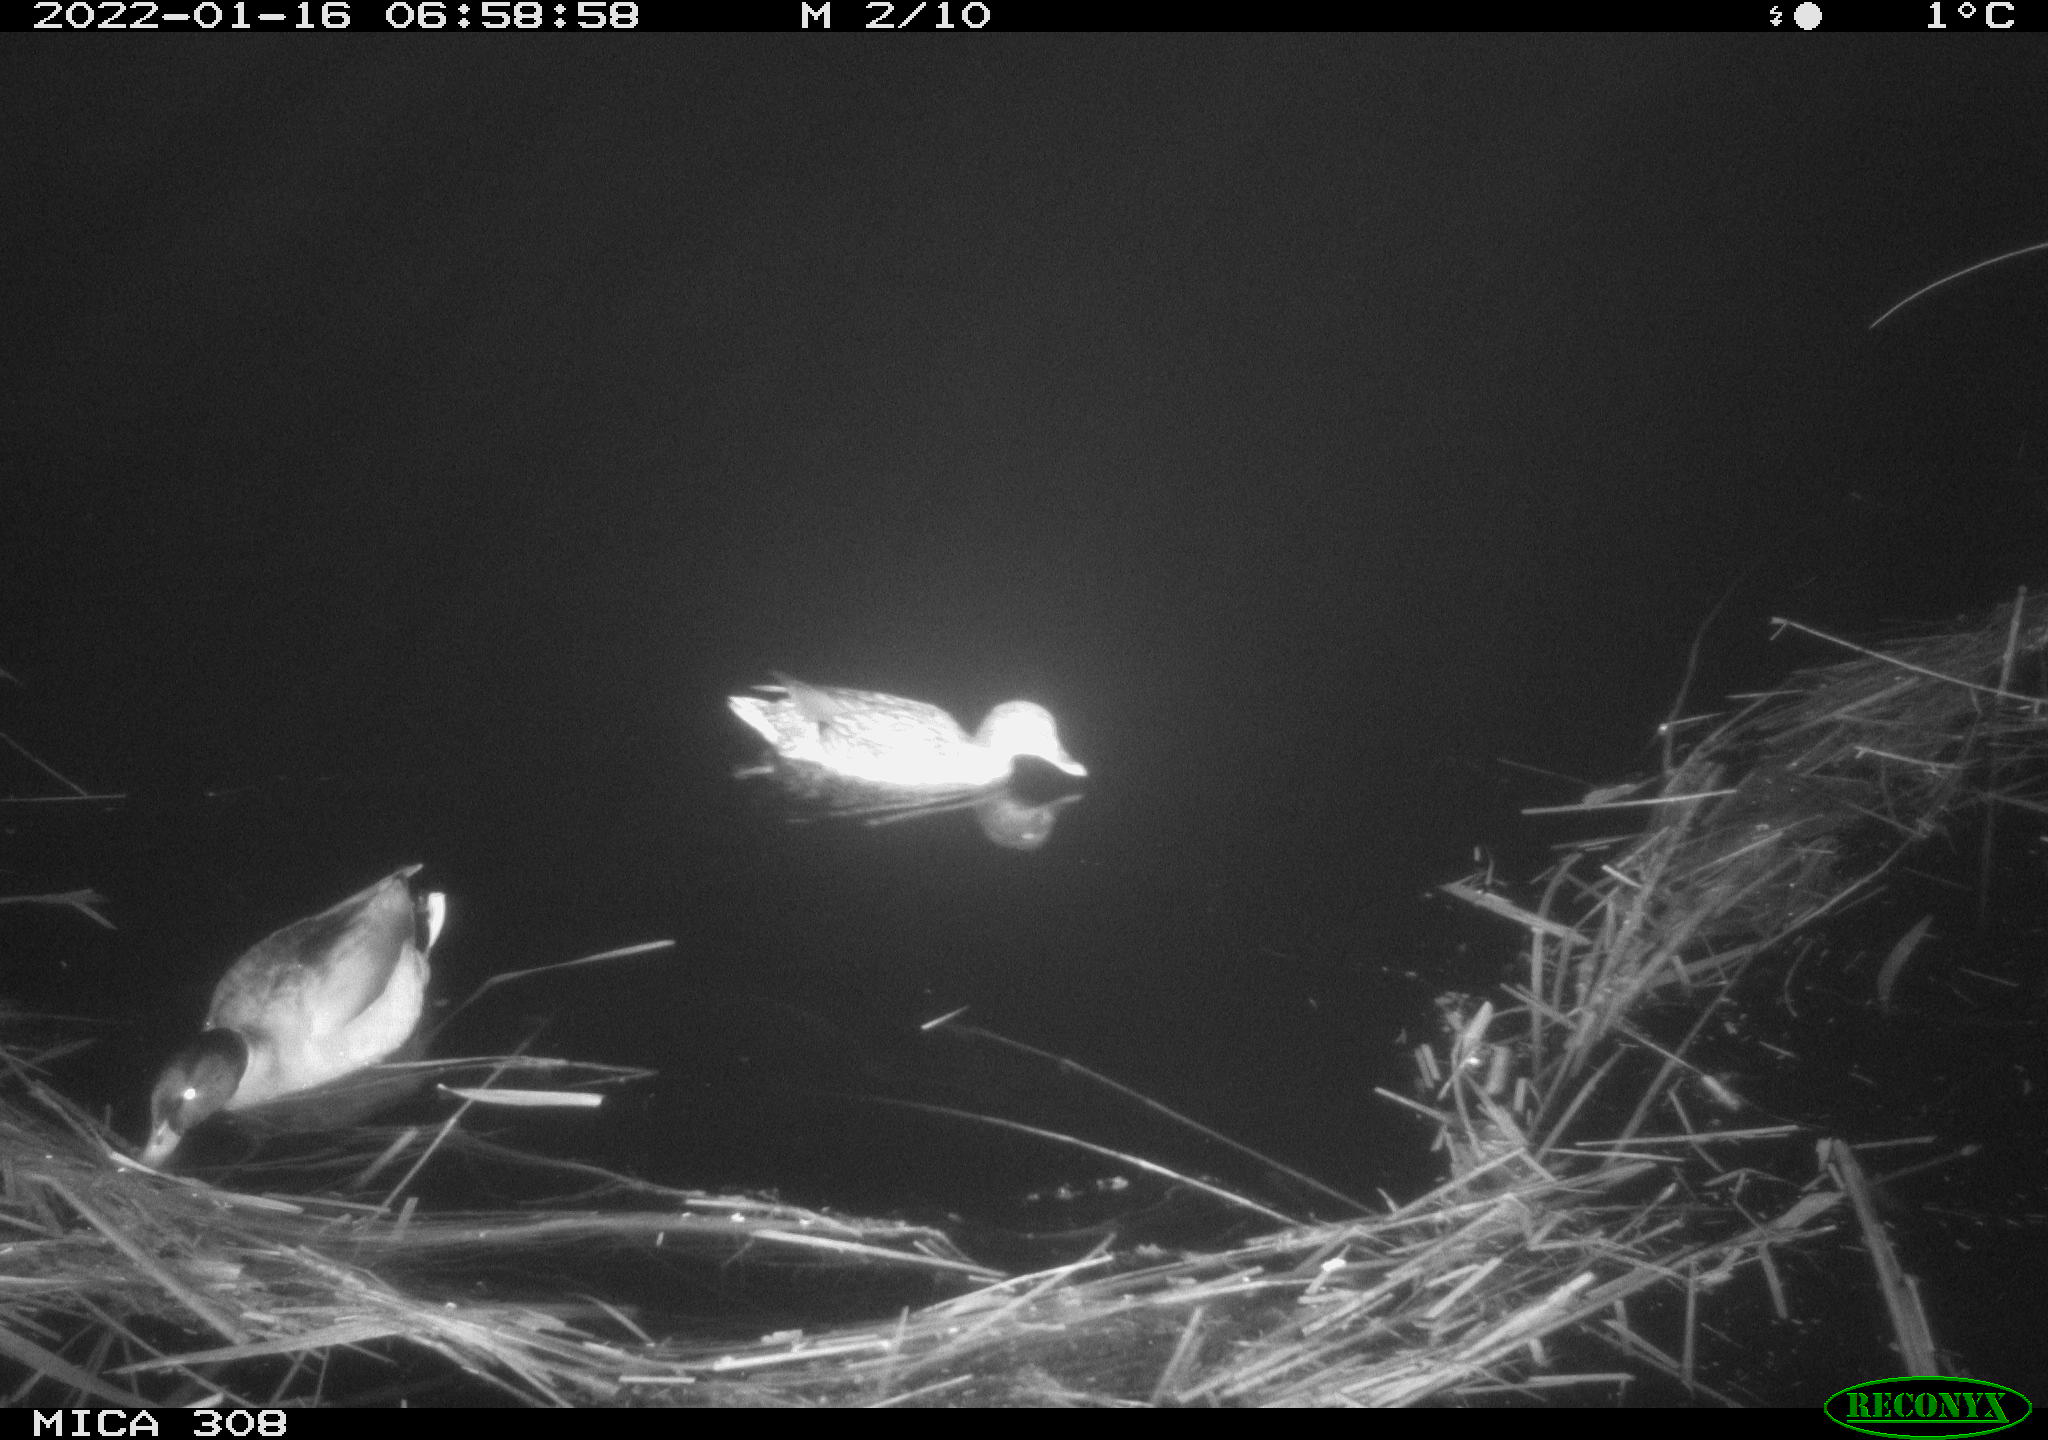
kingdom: Animalia
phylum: Chordata
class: Aves
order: Anseriformes
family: Anatidae
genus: Anas
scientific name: Anas
